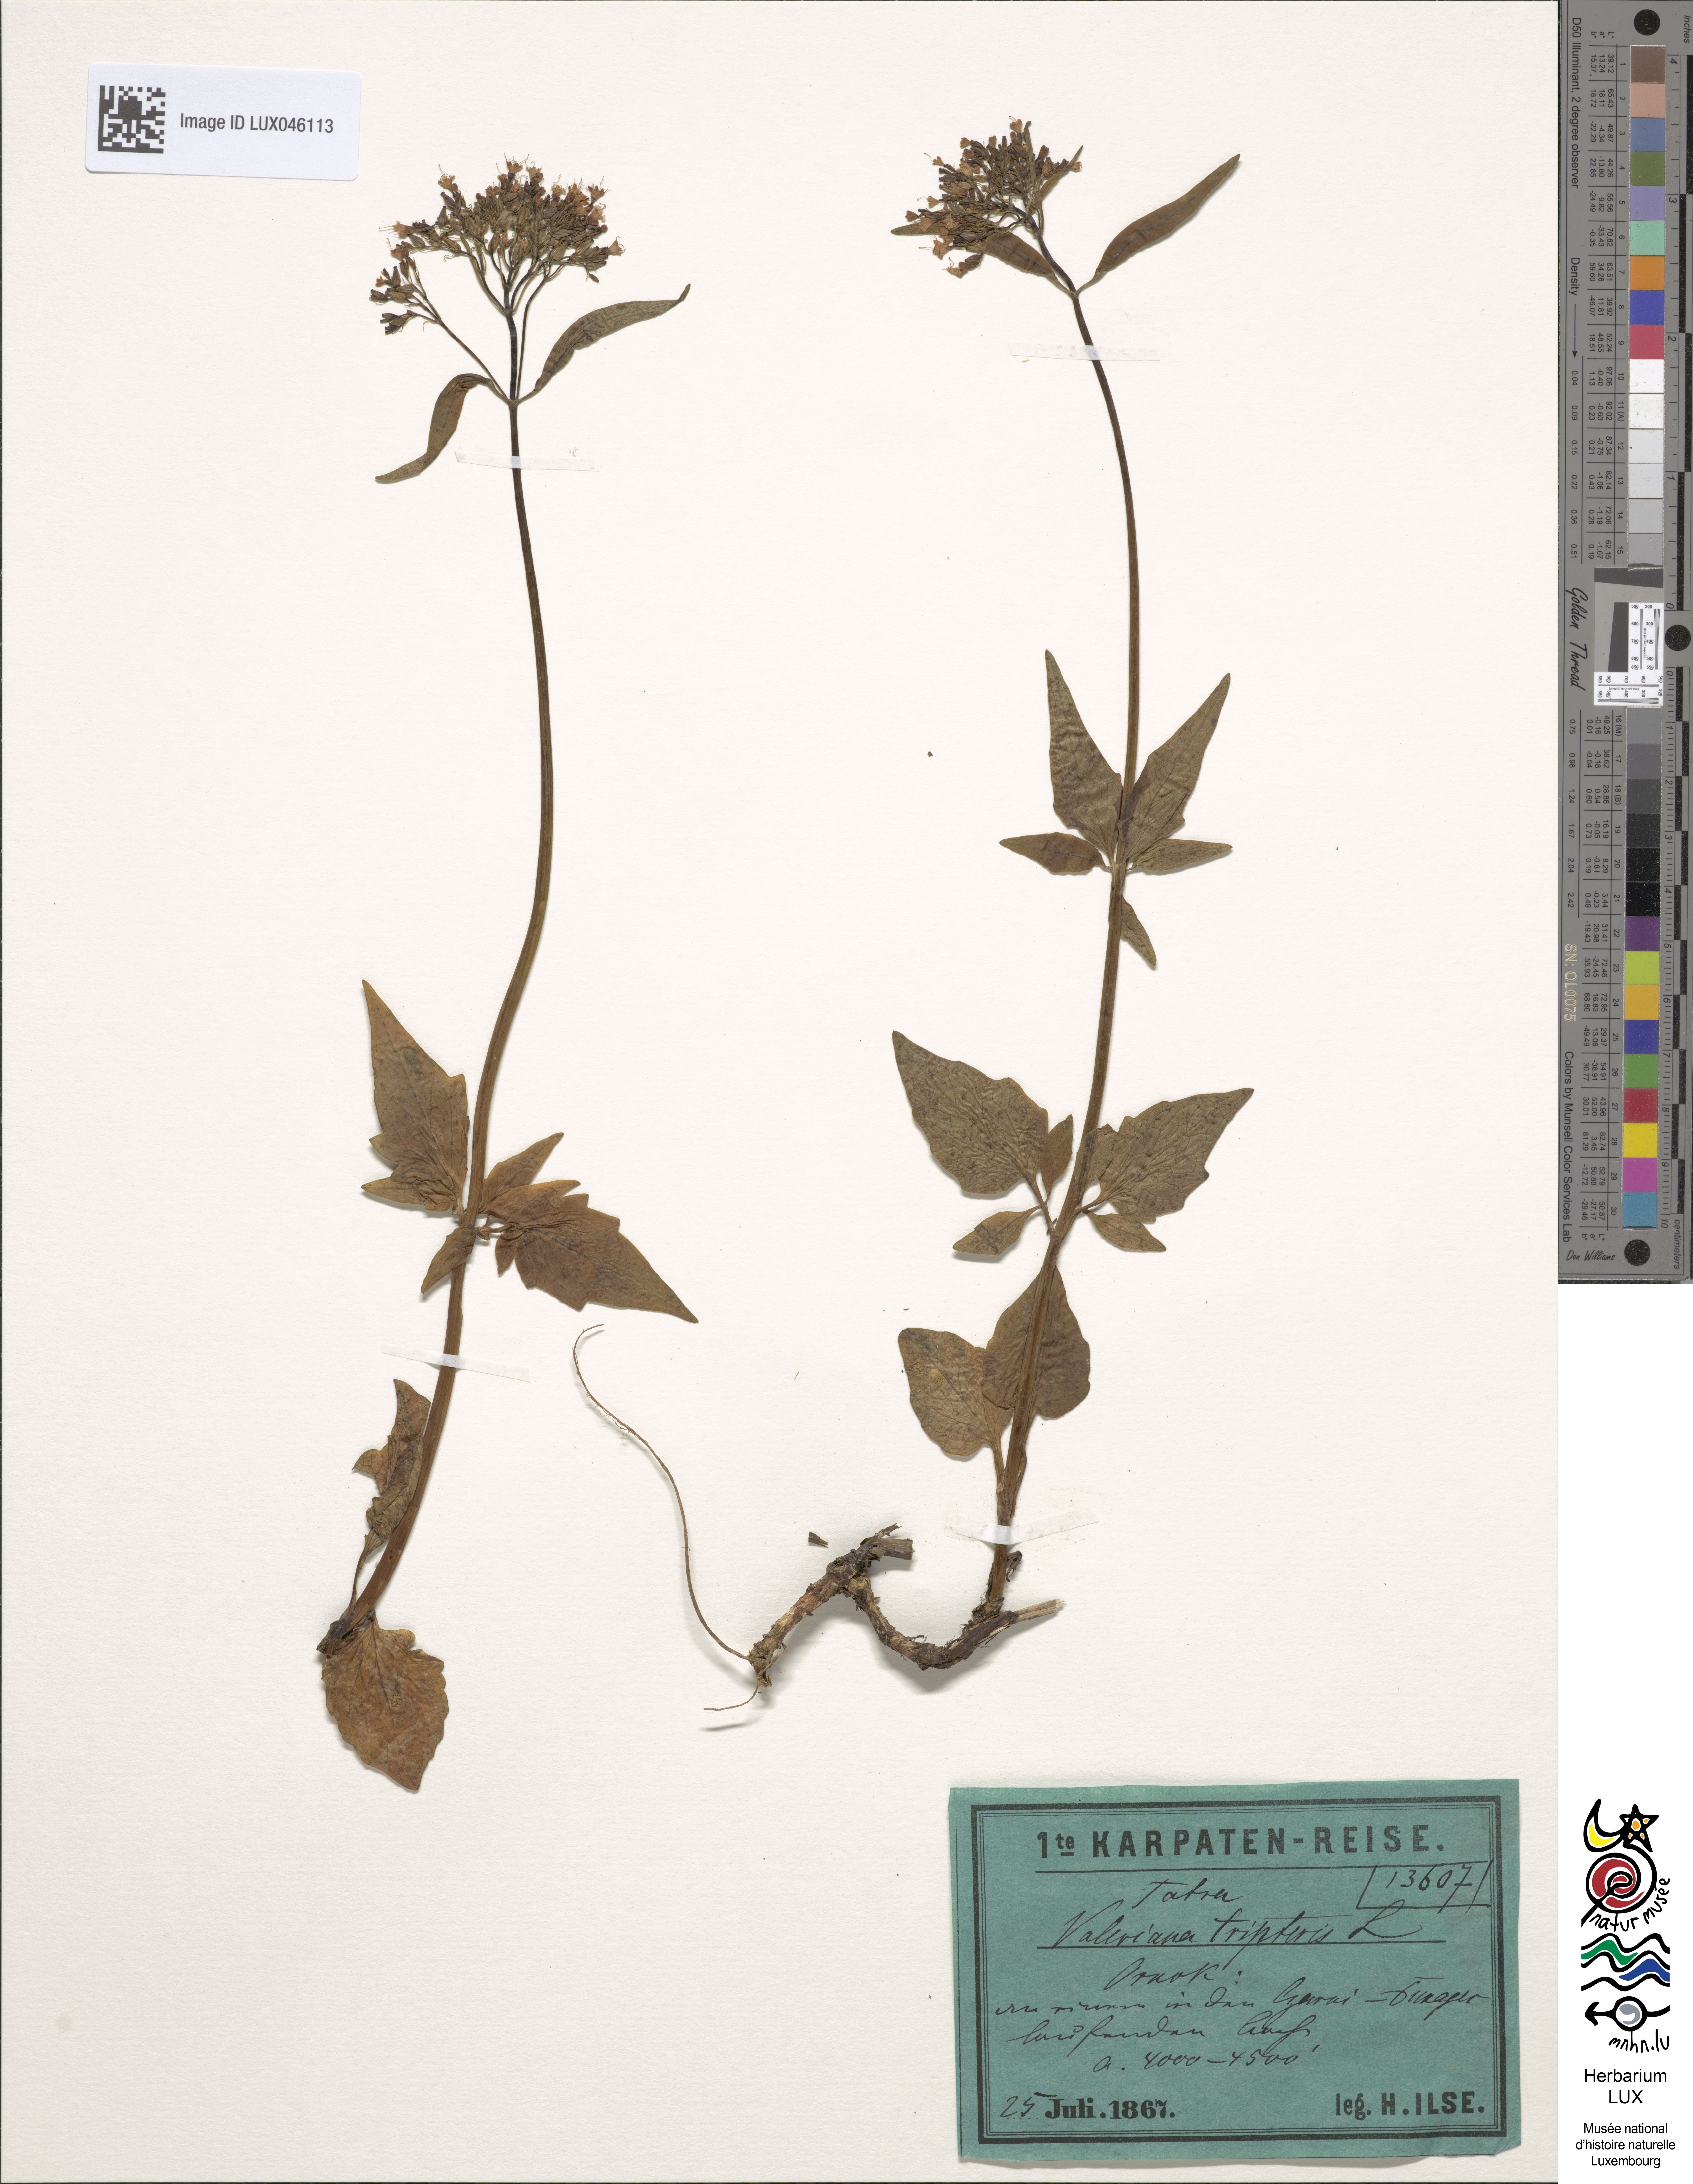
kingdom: Plantae
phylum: Tracheophyta
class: Magnoliopsida
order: Dipsacales
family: Caprifoliaceae
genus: Valeriana
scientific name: Valeriana tripteris
